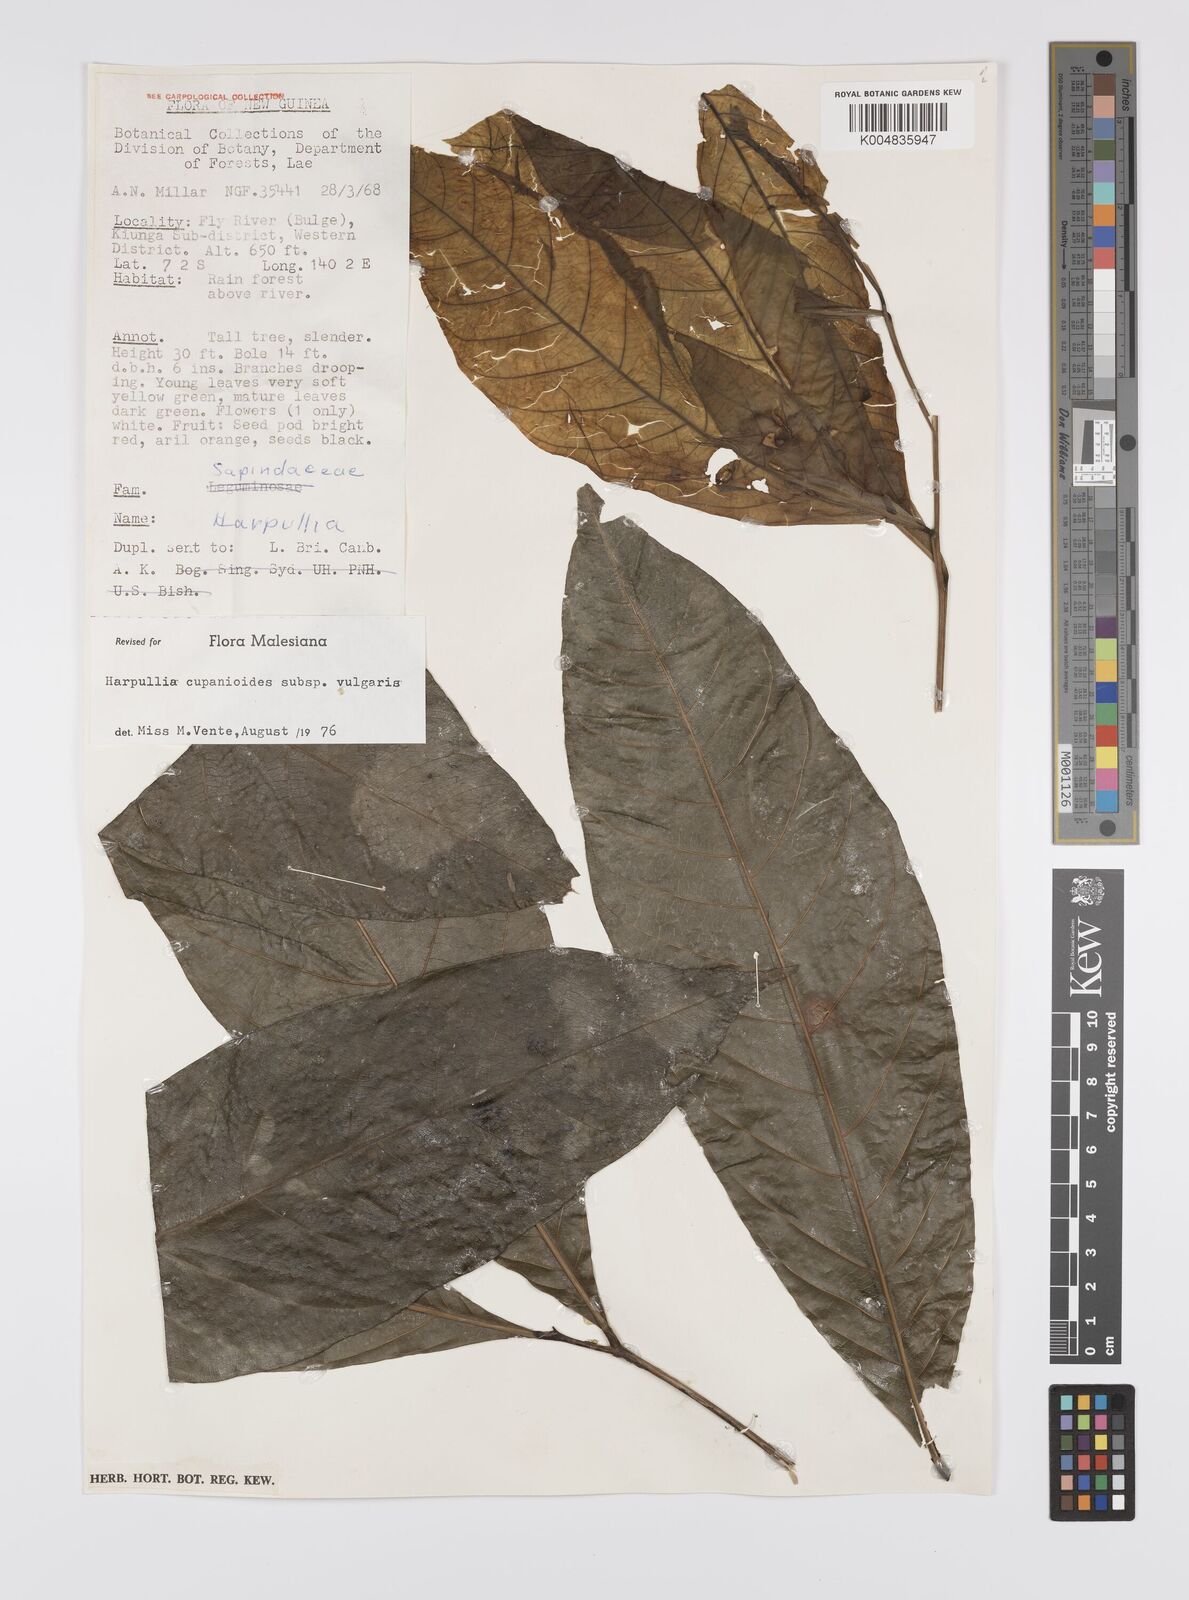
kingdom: Plantae
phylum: Tracheophyta
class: Magnoliopsida
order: Sapindales
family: Sapindaceae
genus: Harpullia
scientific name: Harpullia cupanioides
